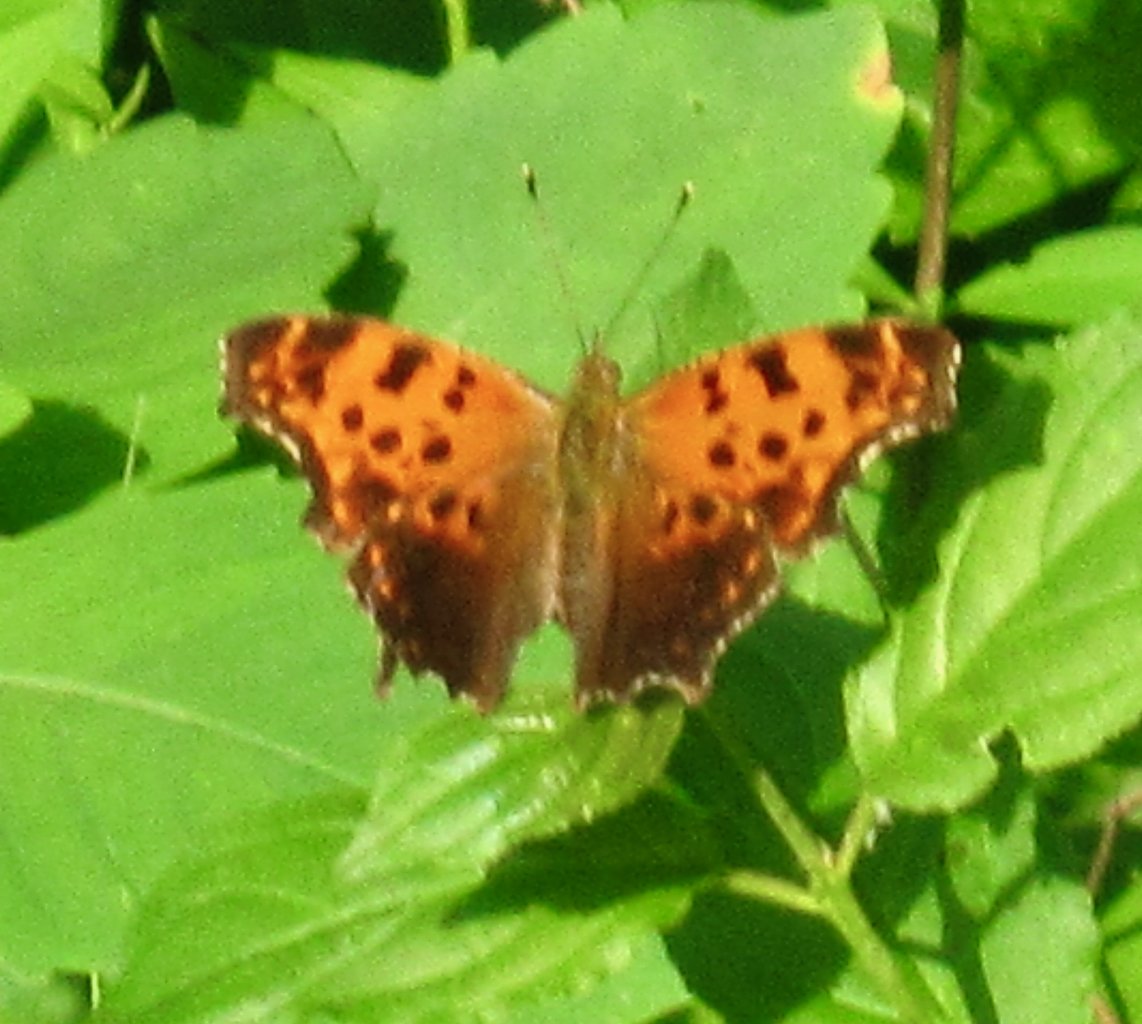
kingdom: Animalia
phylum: Arthropoda
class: Insecta
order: Lepidoptera
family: Nymphalidae
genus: Polygonia
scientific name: Polygonia comma
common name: Eastern Comma
